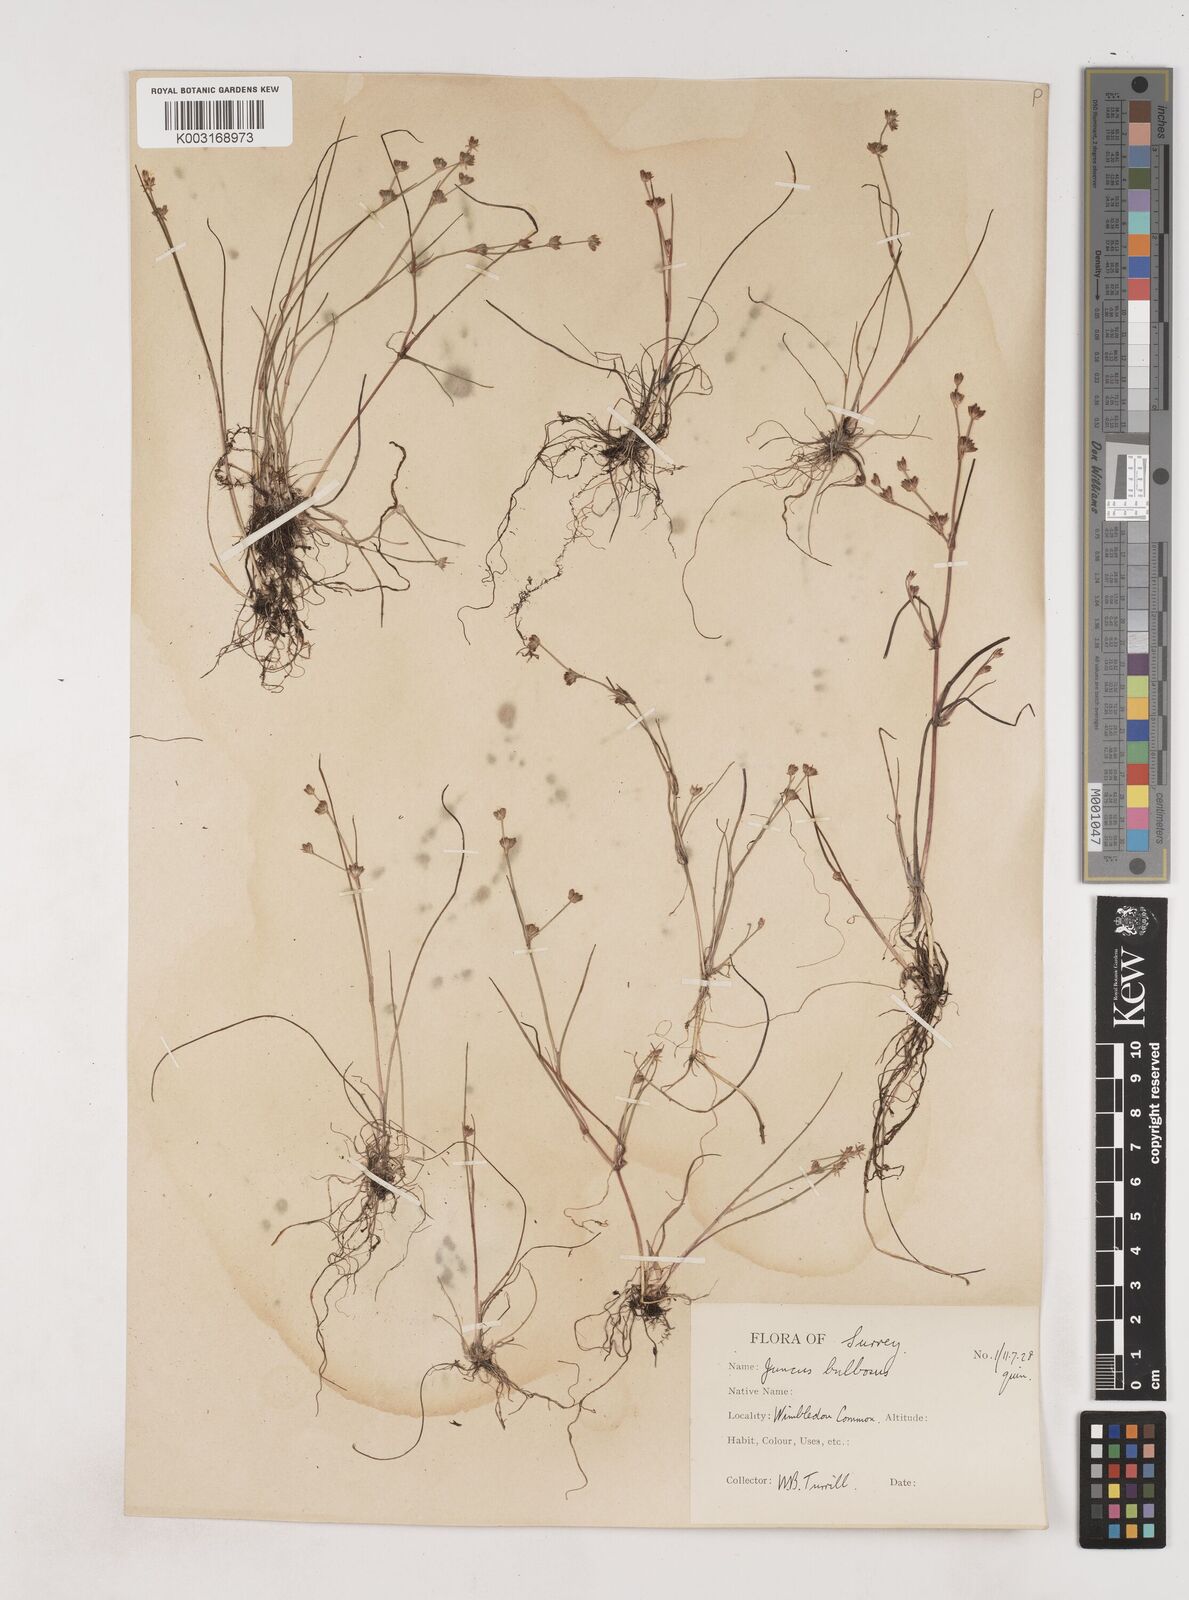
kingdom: Plantae
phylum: Tracheophyta
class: Liliopsida
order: Poales
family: Juncaceae
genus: Juncus
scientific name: Juncus bulbosus
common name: Bulbous rush
